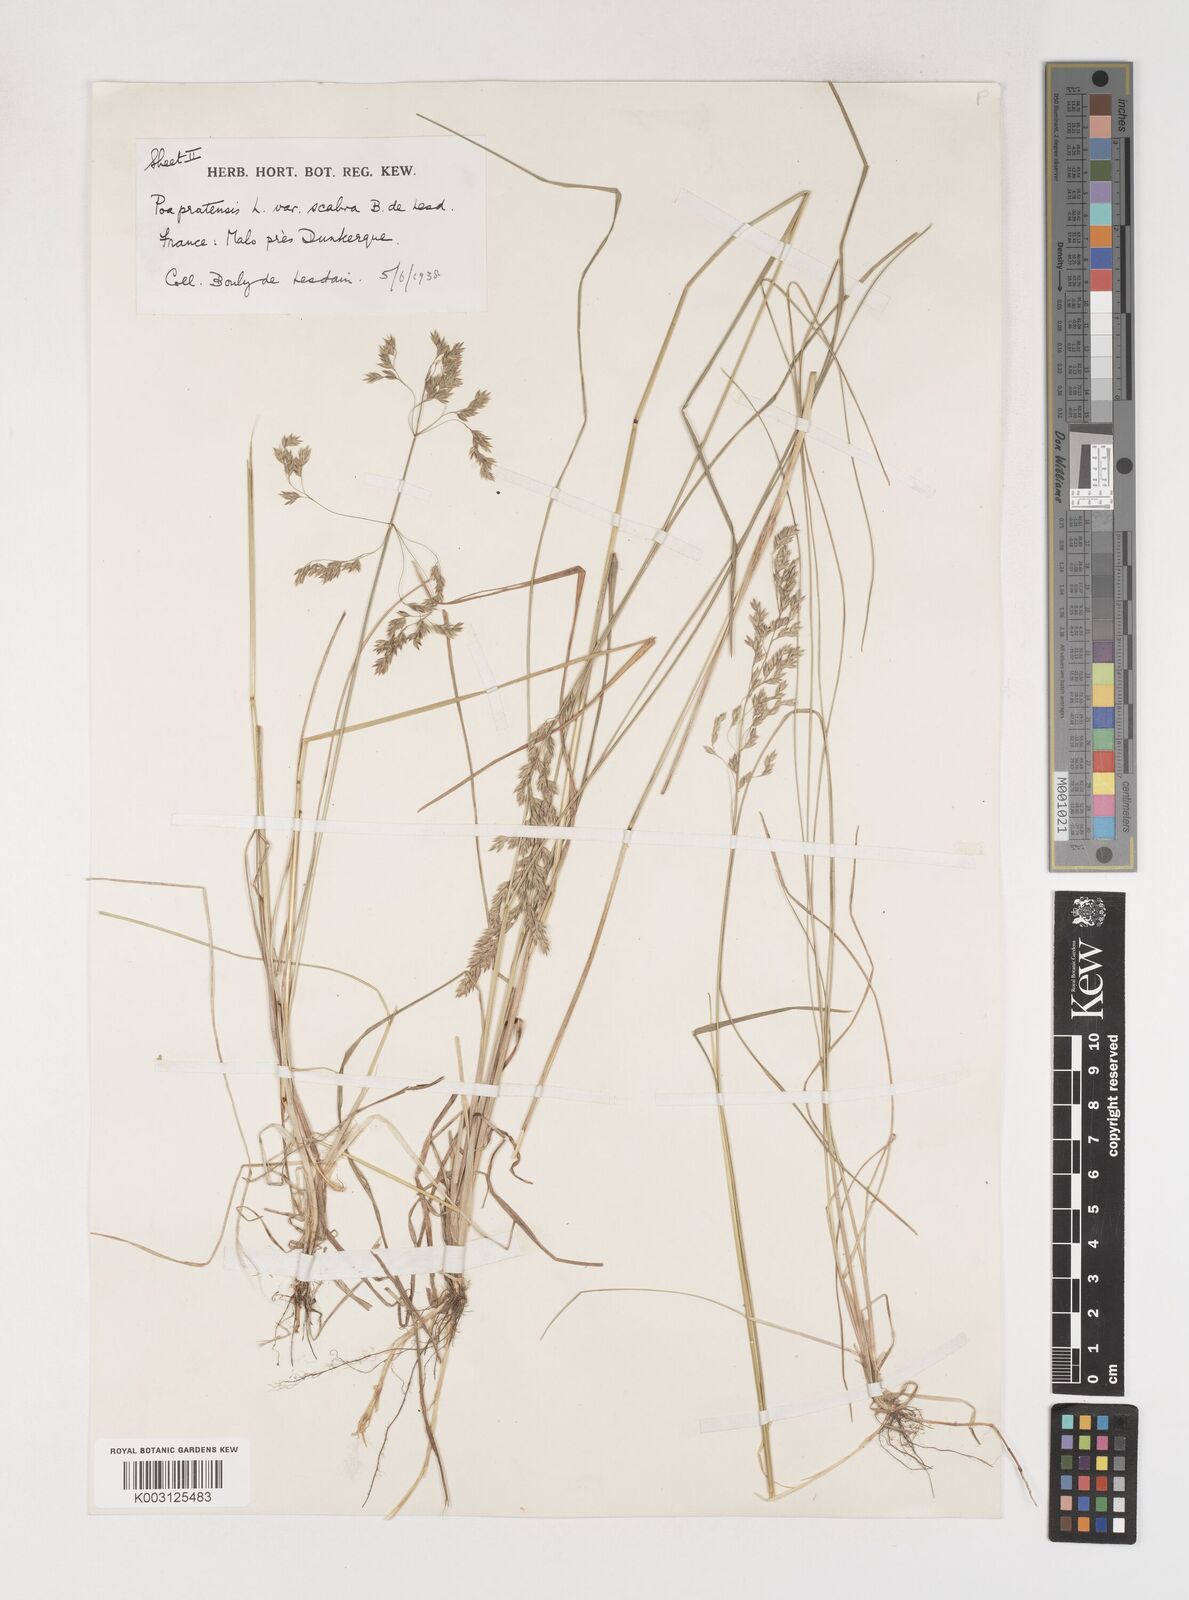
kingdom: Plantae
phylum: Tracheophyta
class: Liliopsida
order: Poales
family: Poaceae
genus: Poa
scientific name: Poa angustifolia
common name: Narrow-leaved meadow-grass
